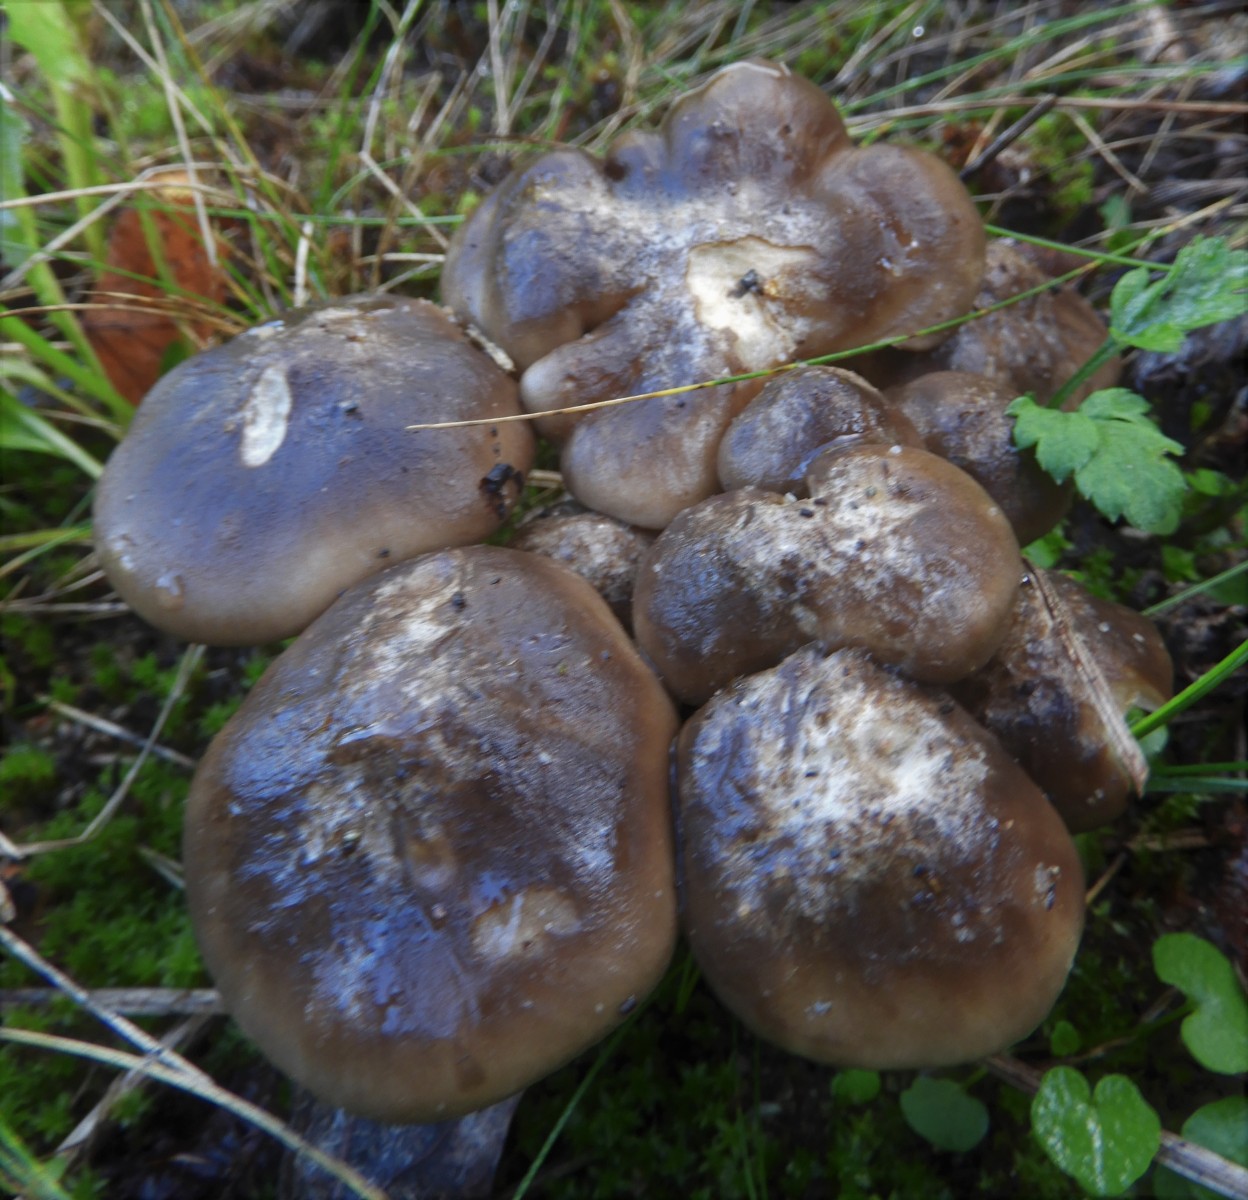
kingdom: Fungi
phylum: Basidiomycota
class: Agaricomycetes
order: Agaricales
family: Lyophyllaceae
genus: Lyophyllum
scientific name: Lyophyllum decastes
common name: røggrå gråblad
